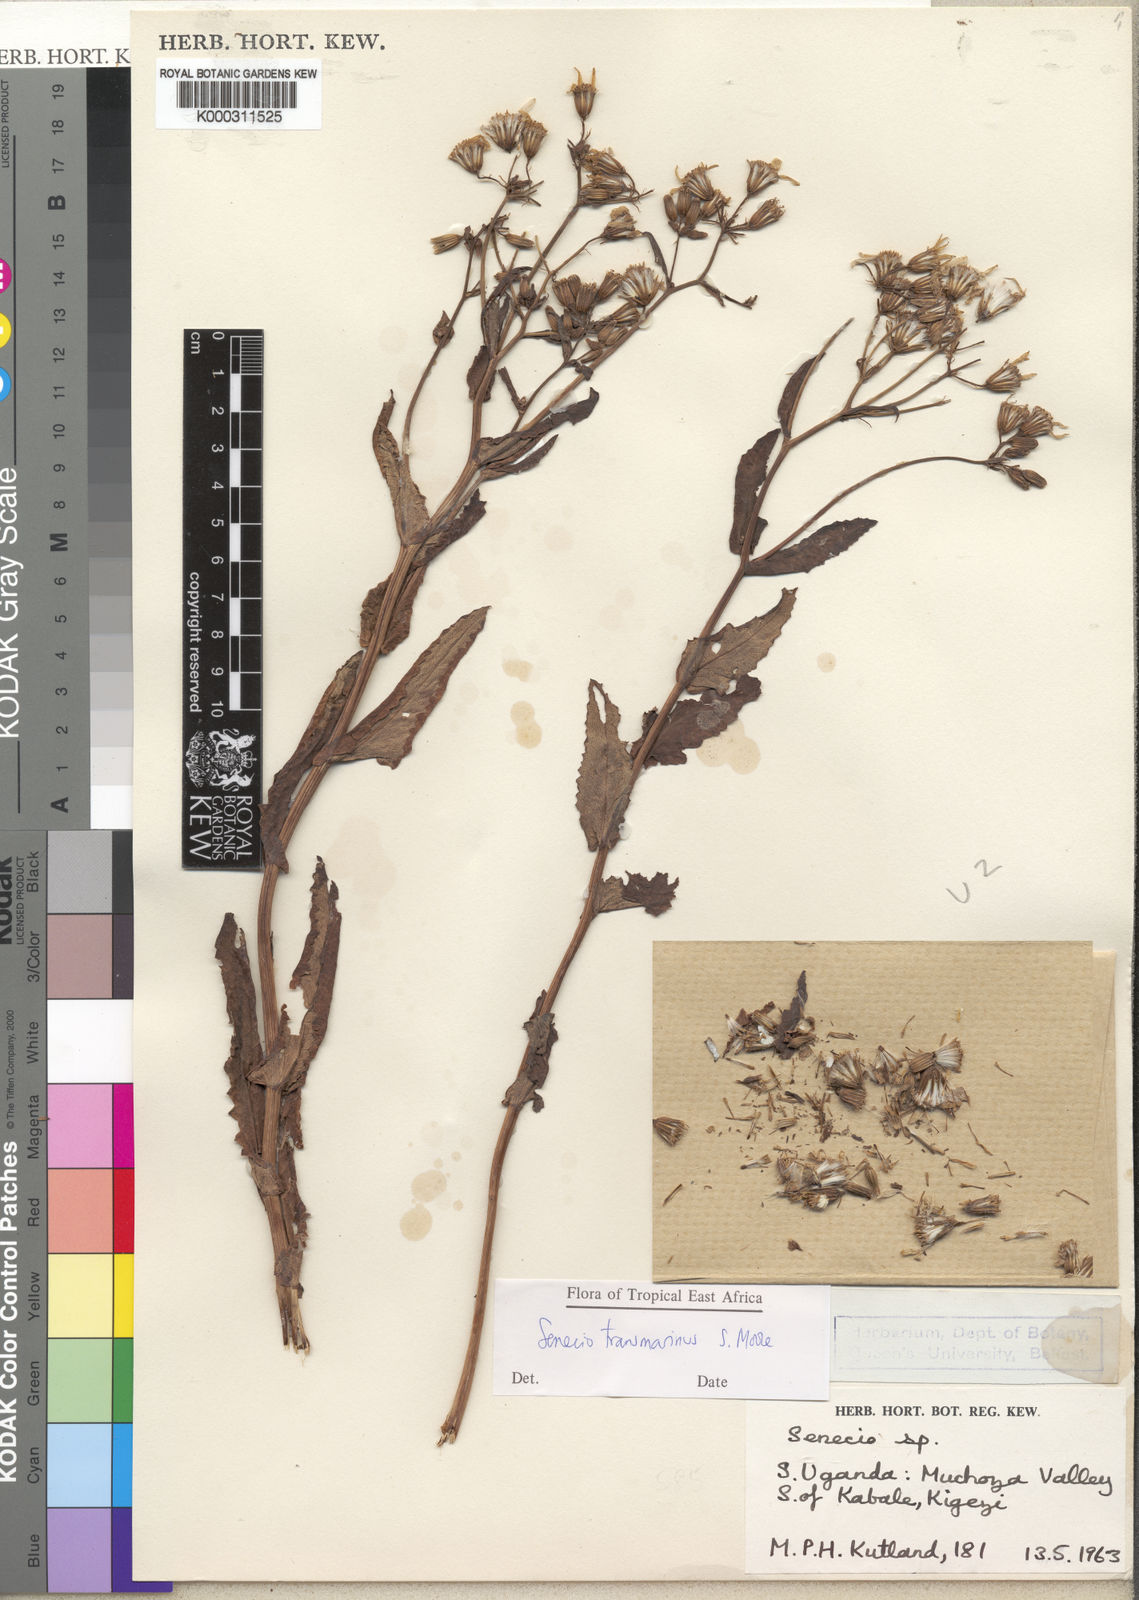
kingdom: Plantae
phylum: Tracheophyta
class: Magnoliopsida
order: Asterales
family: Asteraceae
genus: Senecio
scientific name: Senecio transmarinus
